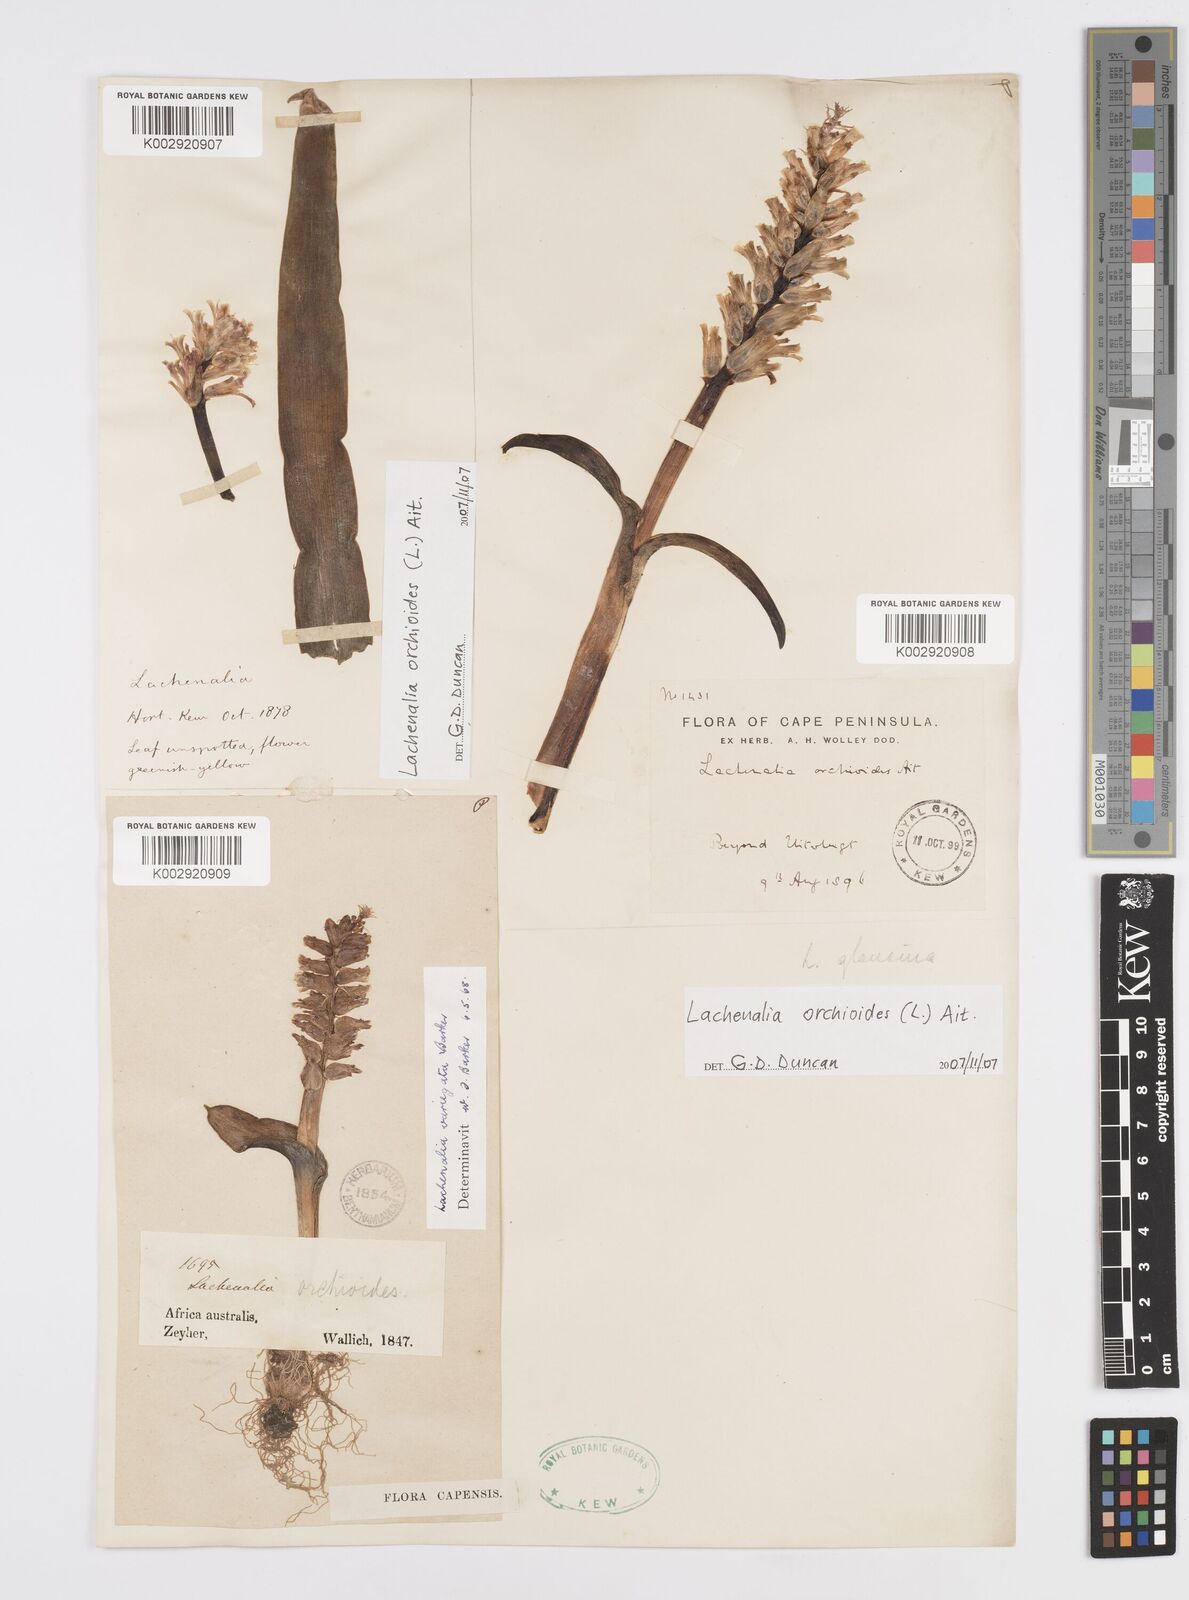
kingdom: Plantae
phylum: Tracheophyta
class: Liliopsida
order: Asparagales
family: Asparagaceae
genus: Lachenalia
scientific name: Lachenalia variegata
